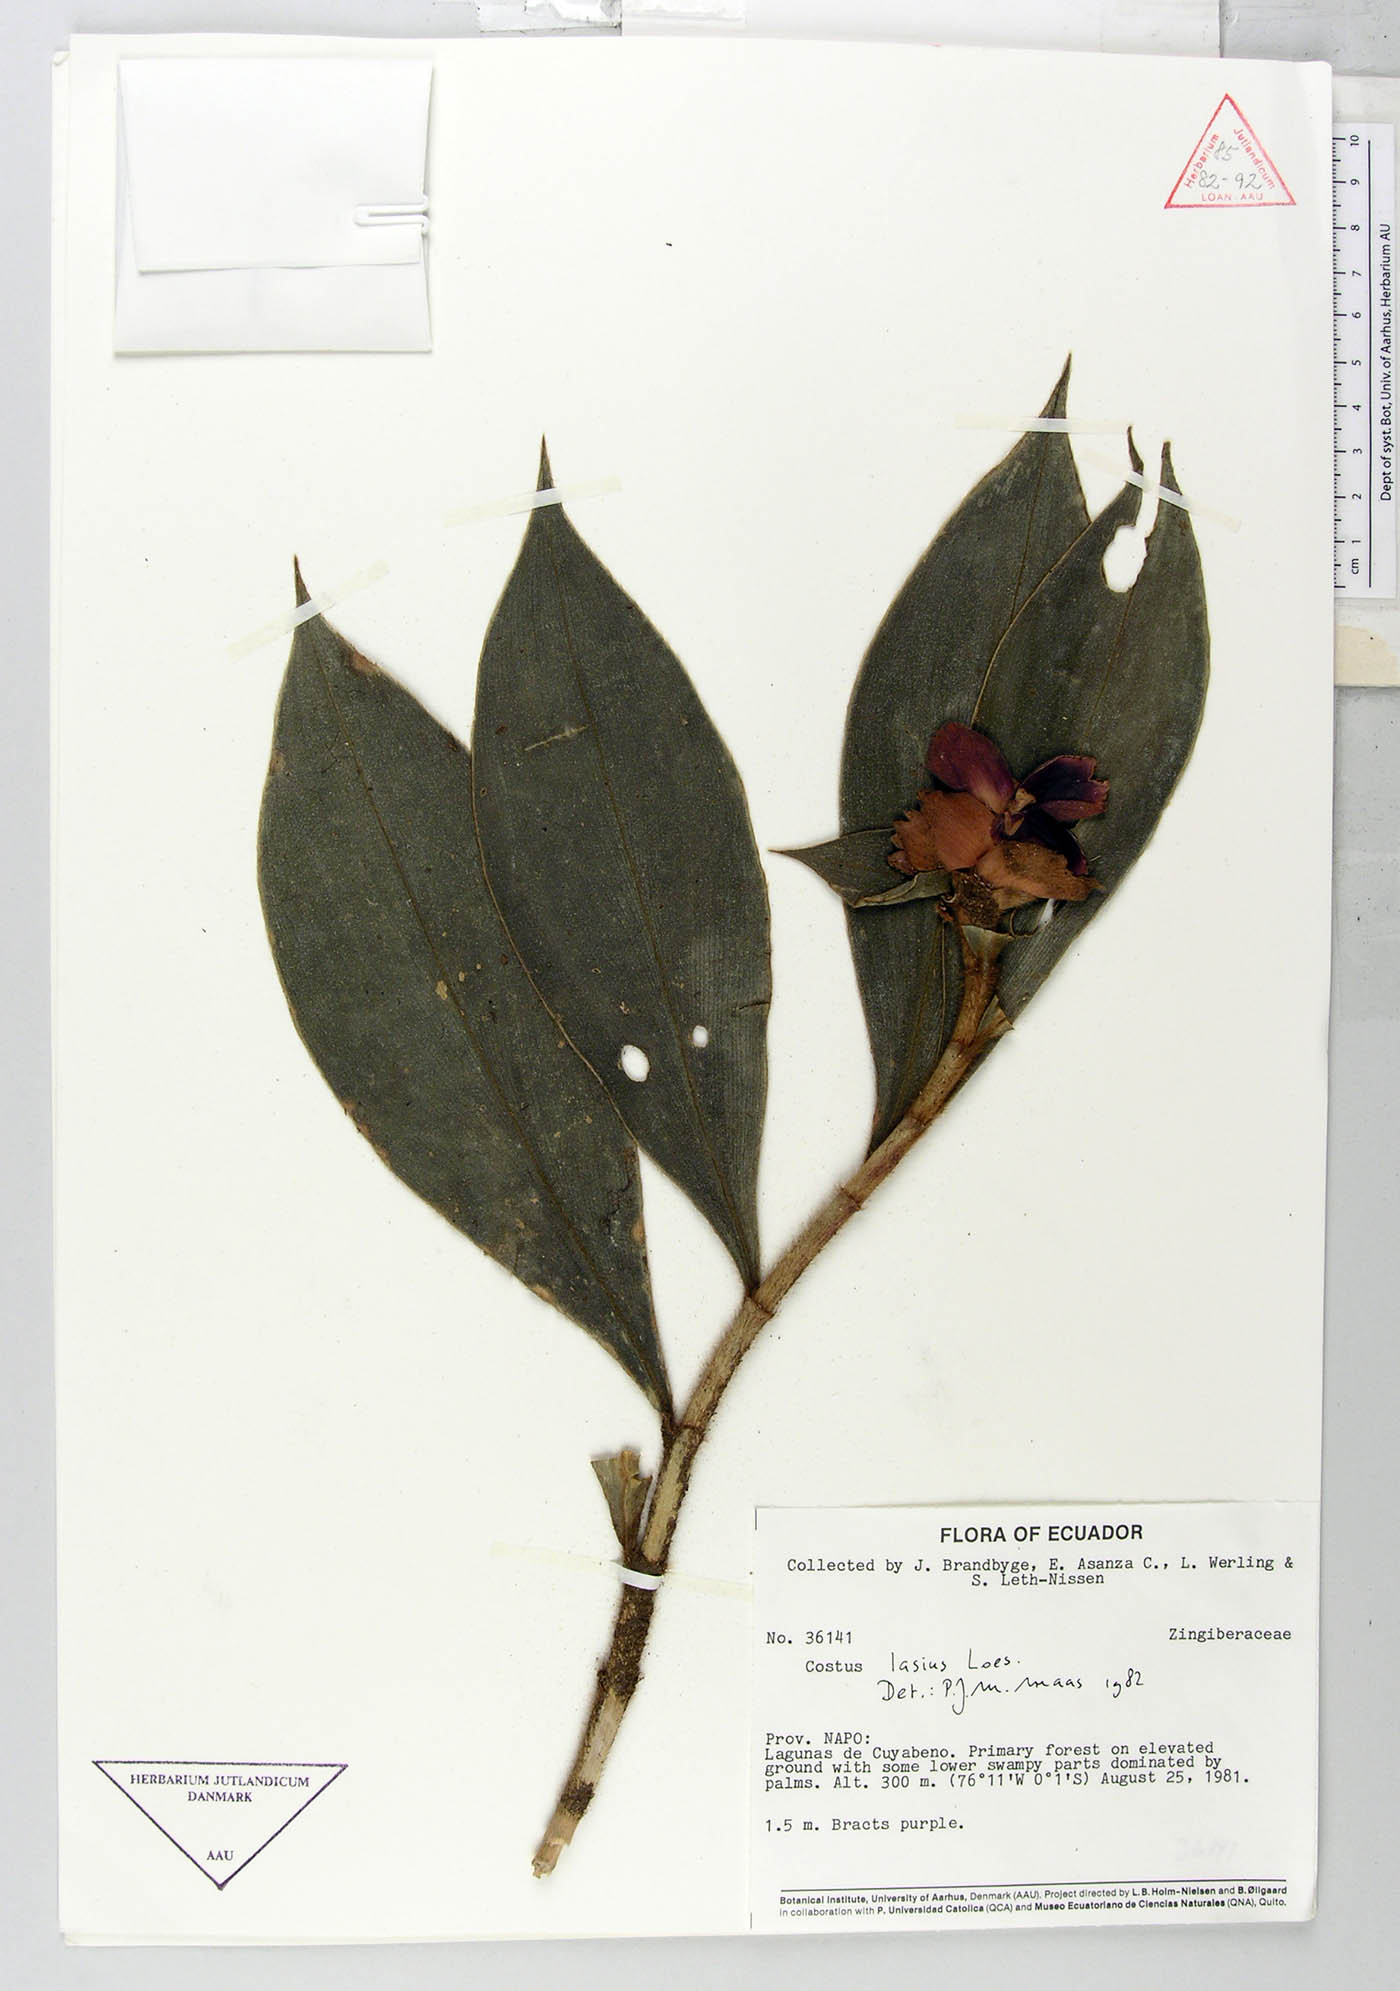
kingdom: Plantae
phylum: Tracheophyta
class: Liliopsida
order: Zingiberales
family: Costaceae
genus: Costus
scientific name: Costus lasius
